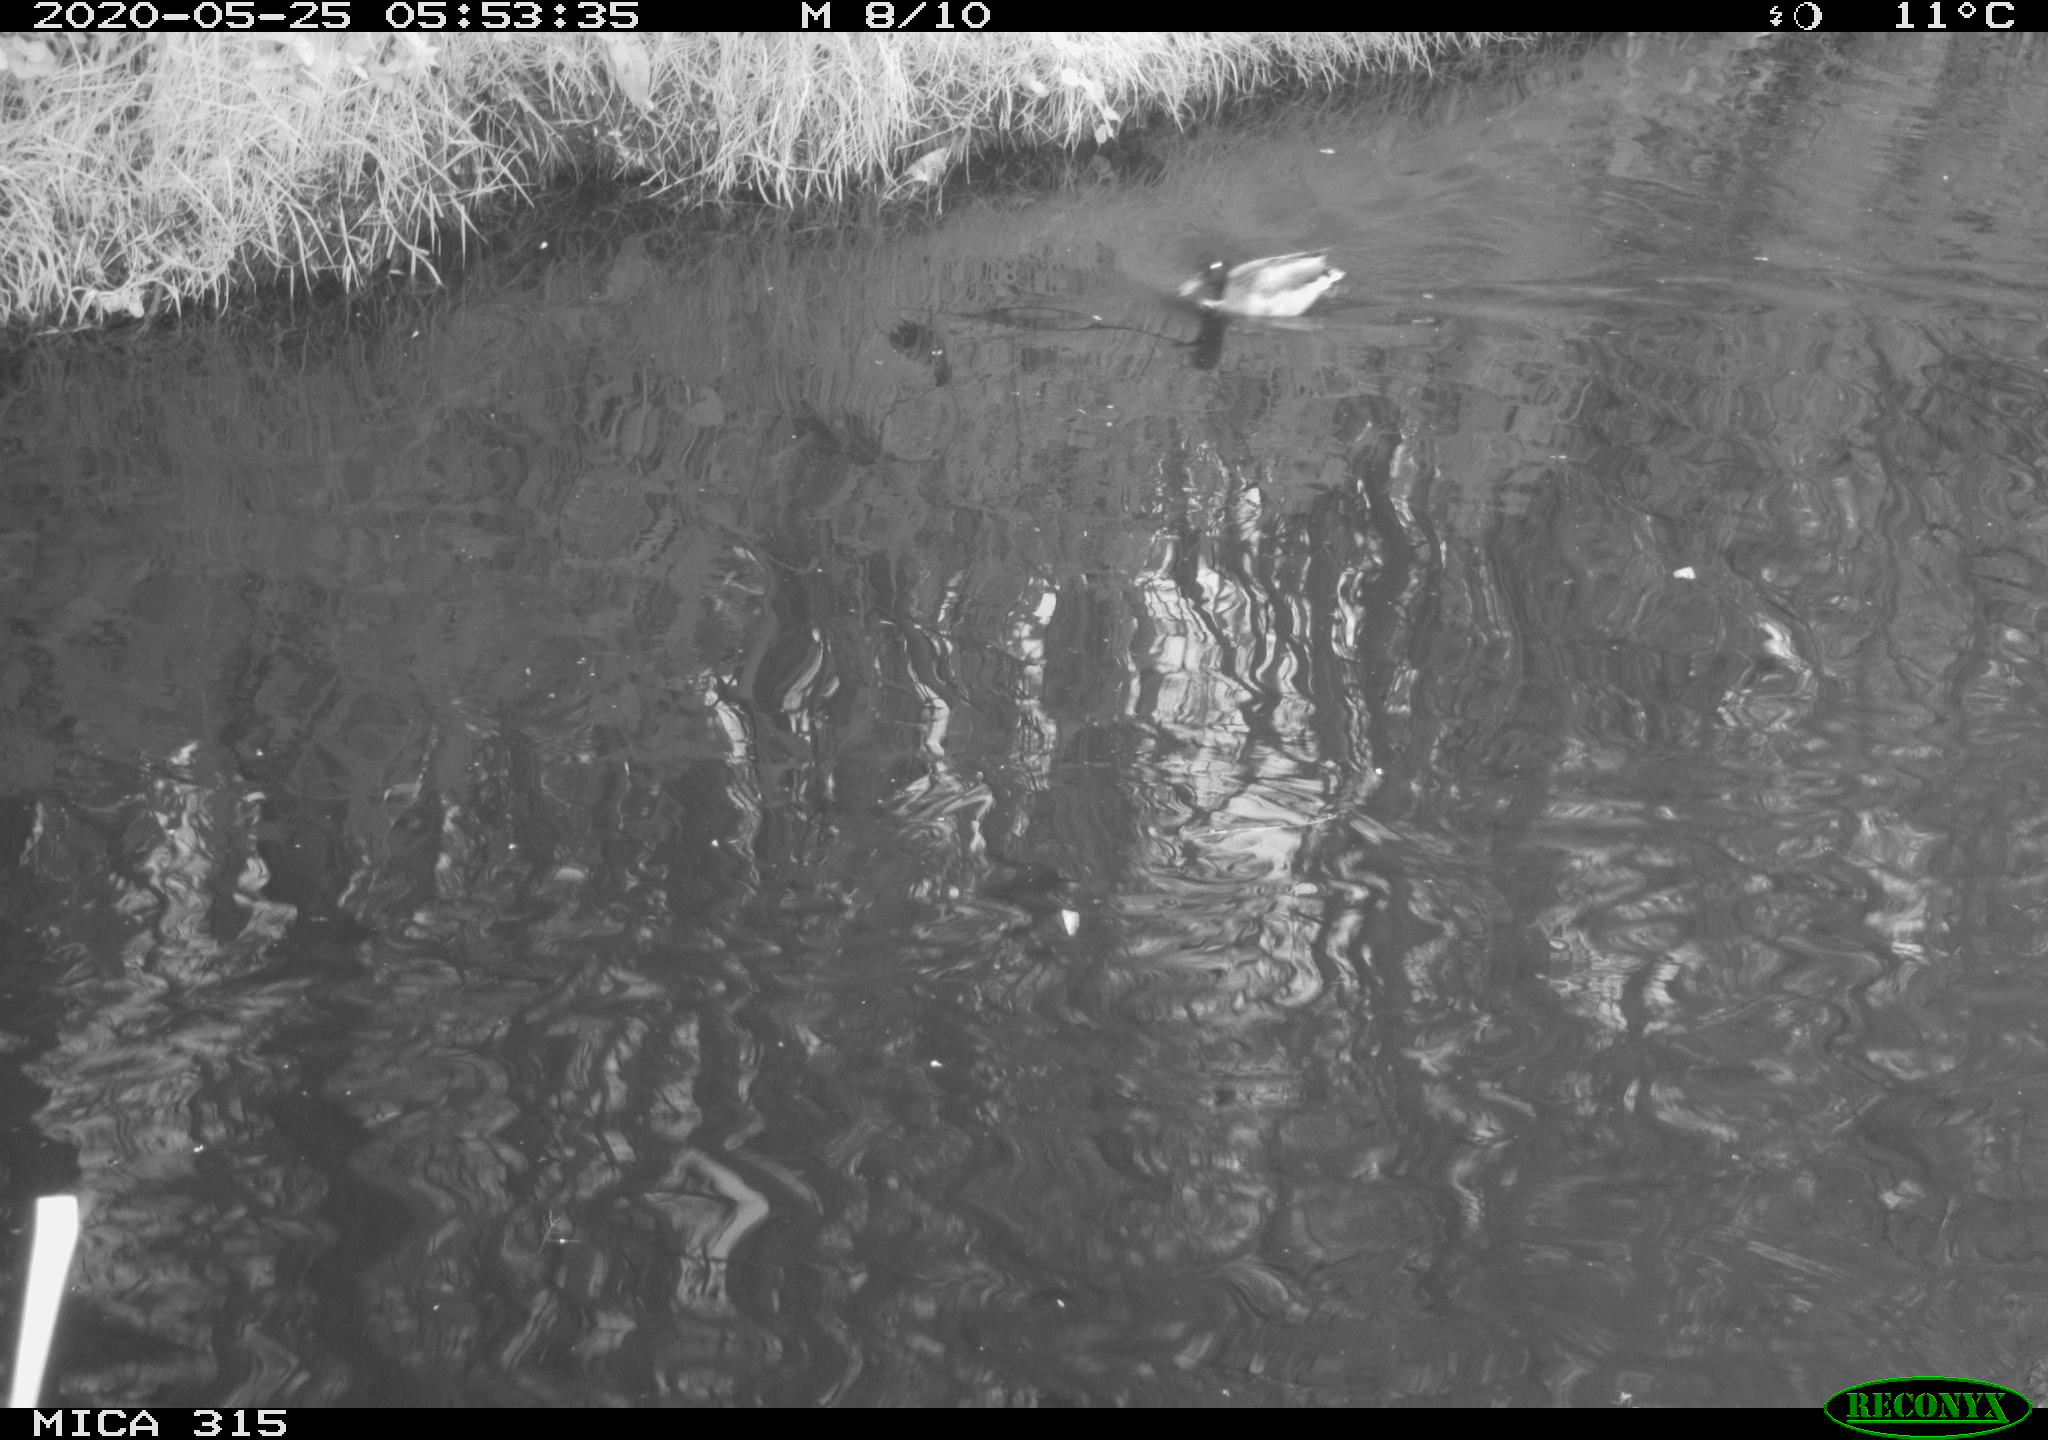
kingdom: Animalia
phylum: Chordata
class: Aves
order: Anseriformes
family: Anatidae
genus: Anas
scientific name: Anas platyrhynchos
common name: Mallard
